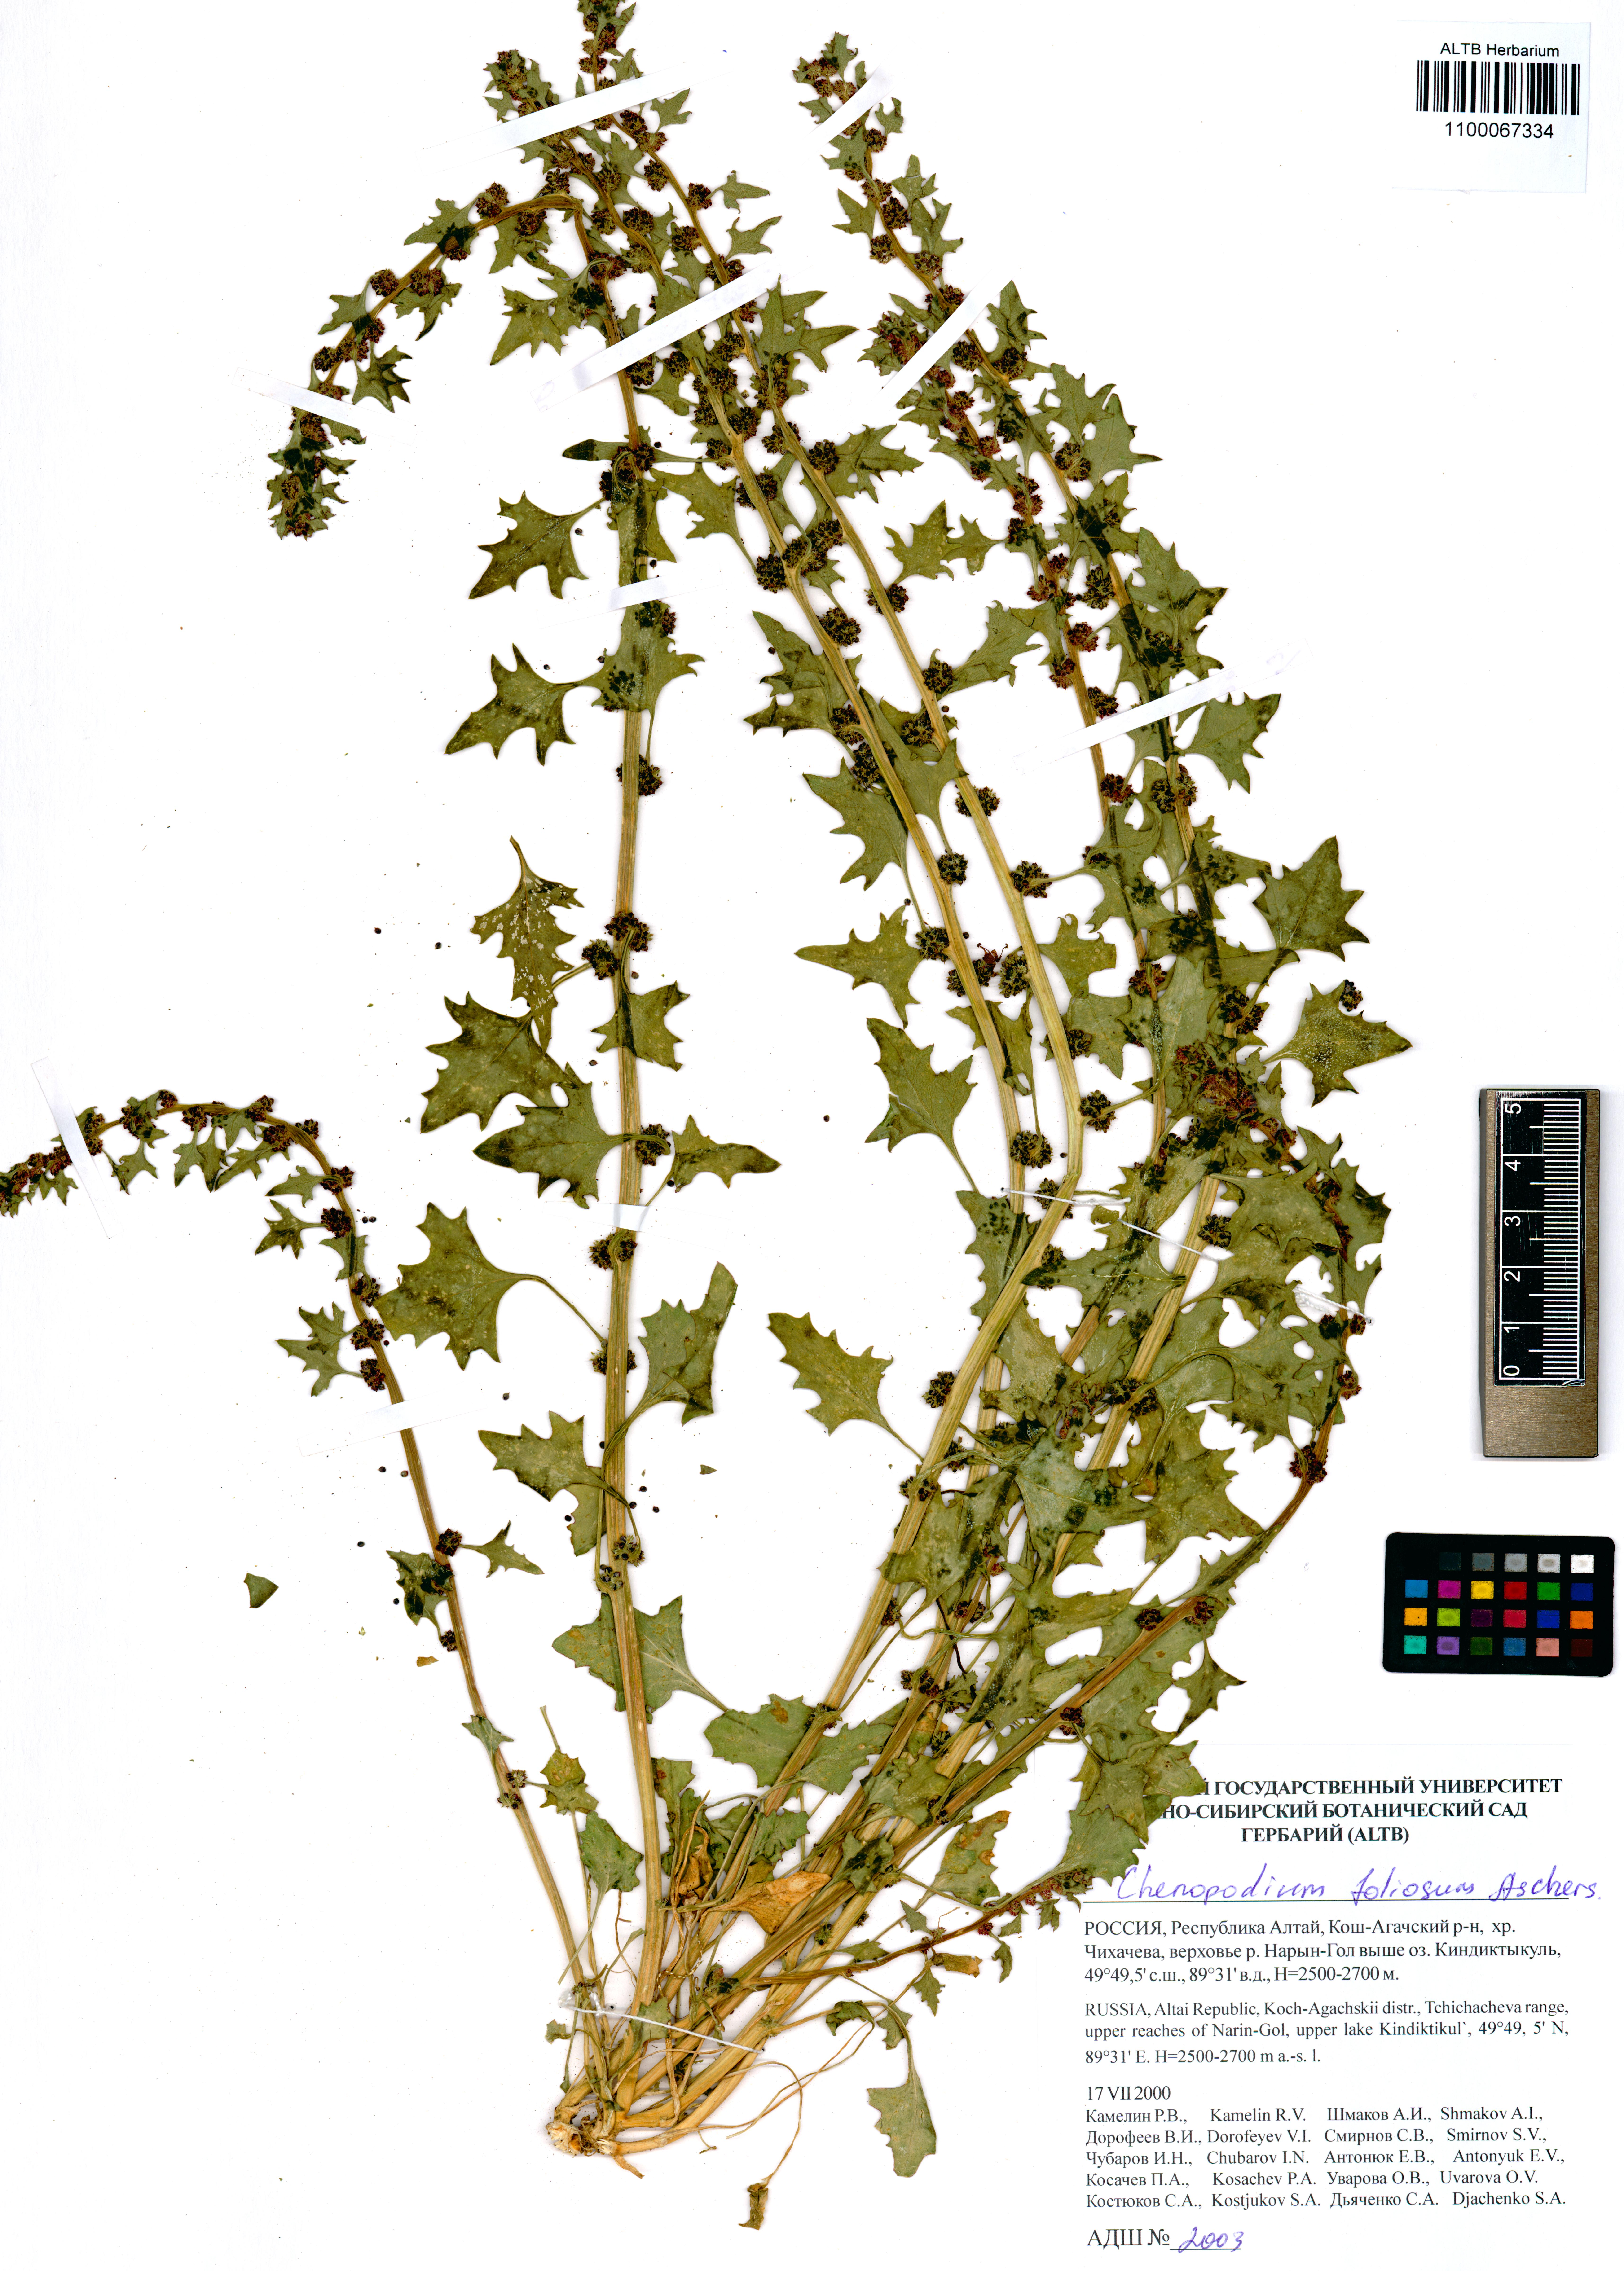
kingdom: Plantae
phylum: Tracheophyta
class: Magnoliopsida
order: Caryophyllales
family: Amaranthaceae
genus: Blitum
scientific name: Blitum virgatum
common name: Strawberry goosefoot
